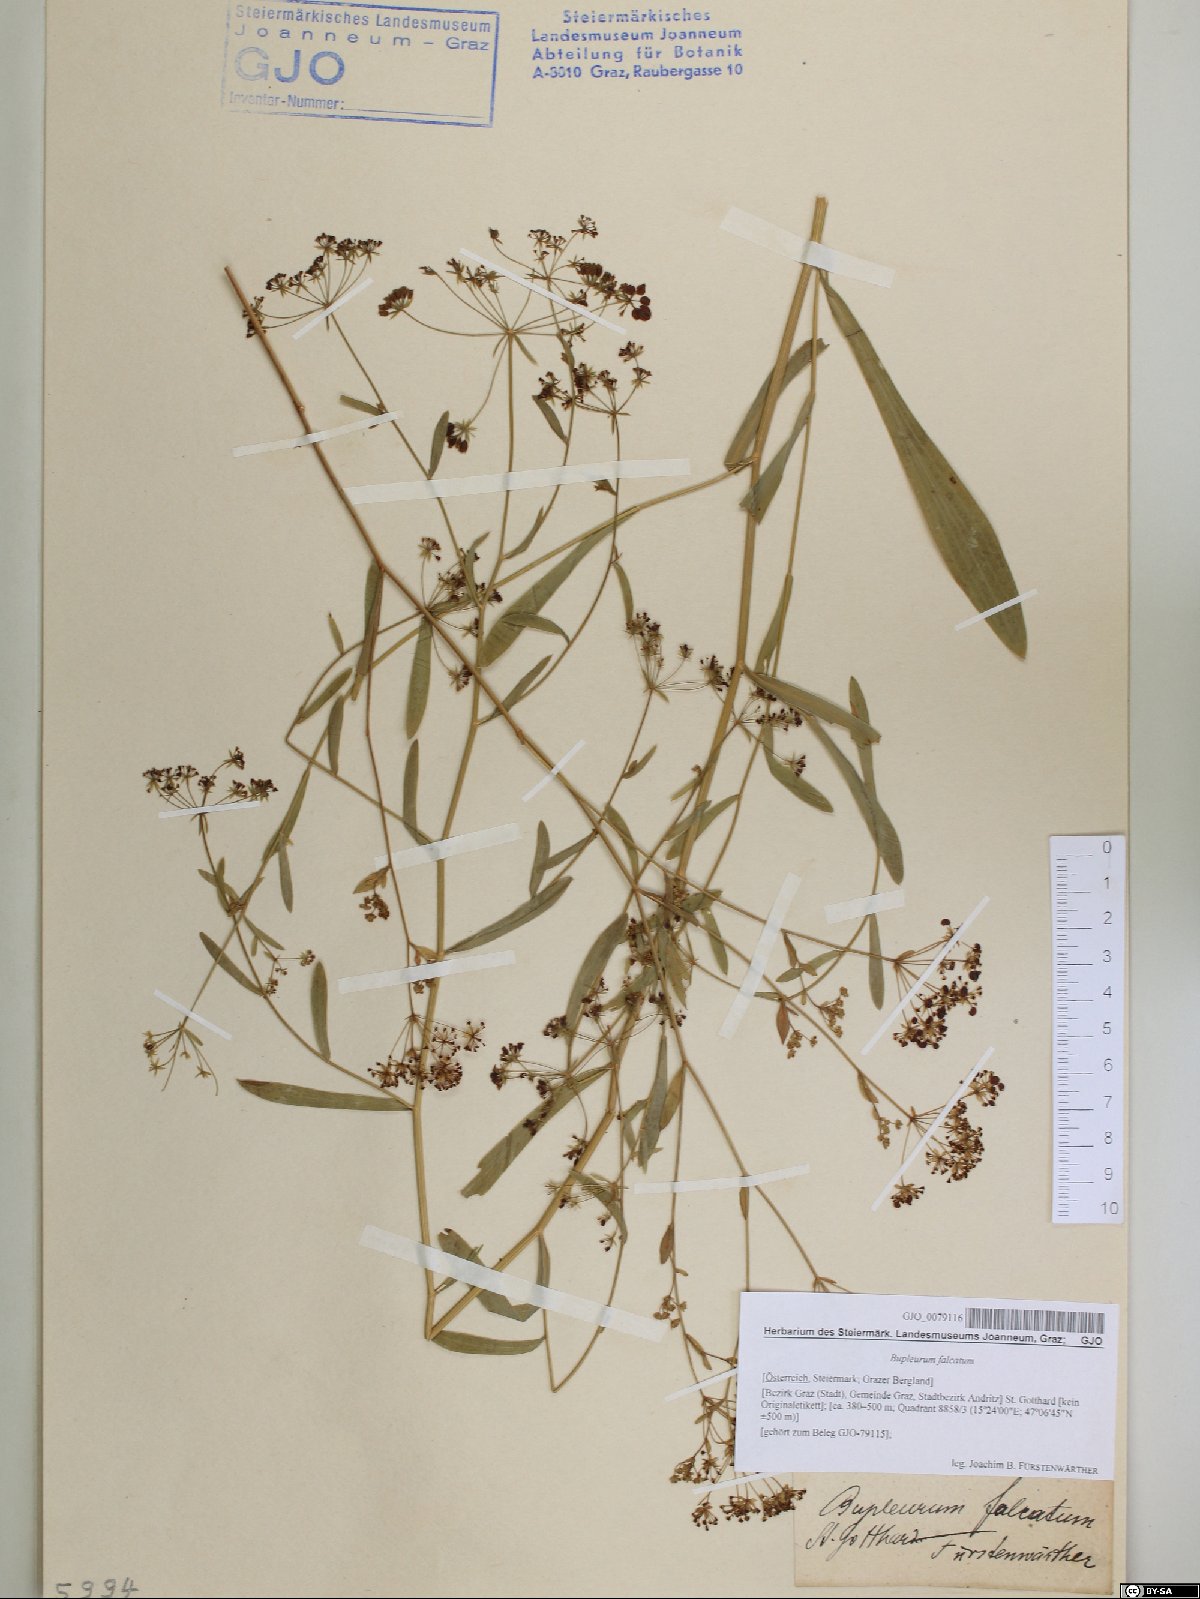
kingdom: Plantae
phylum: Tracheophyta
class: Magnoliopsida
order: Apiales
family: Apiaceae
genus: Bupleurum
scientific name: Bupleurum falcatum
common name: Sickle-leaved hare's-ear
